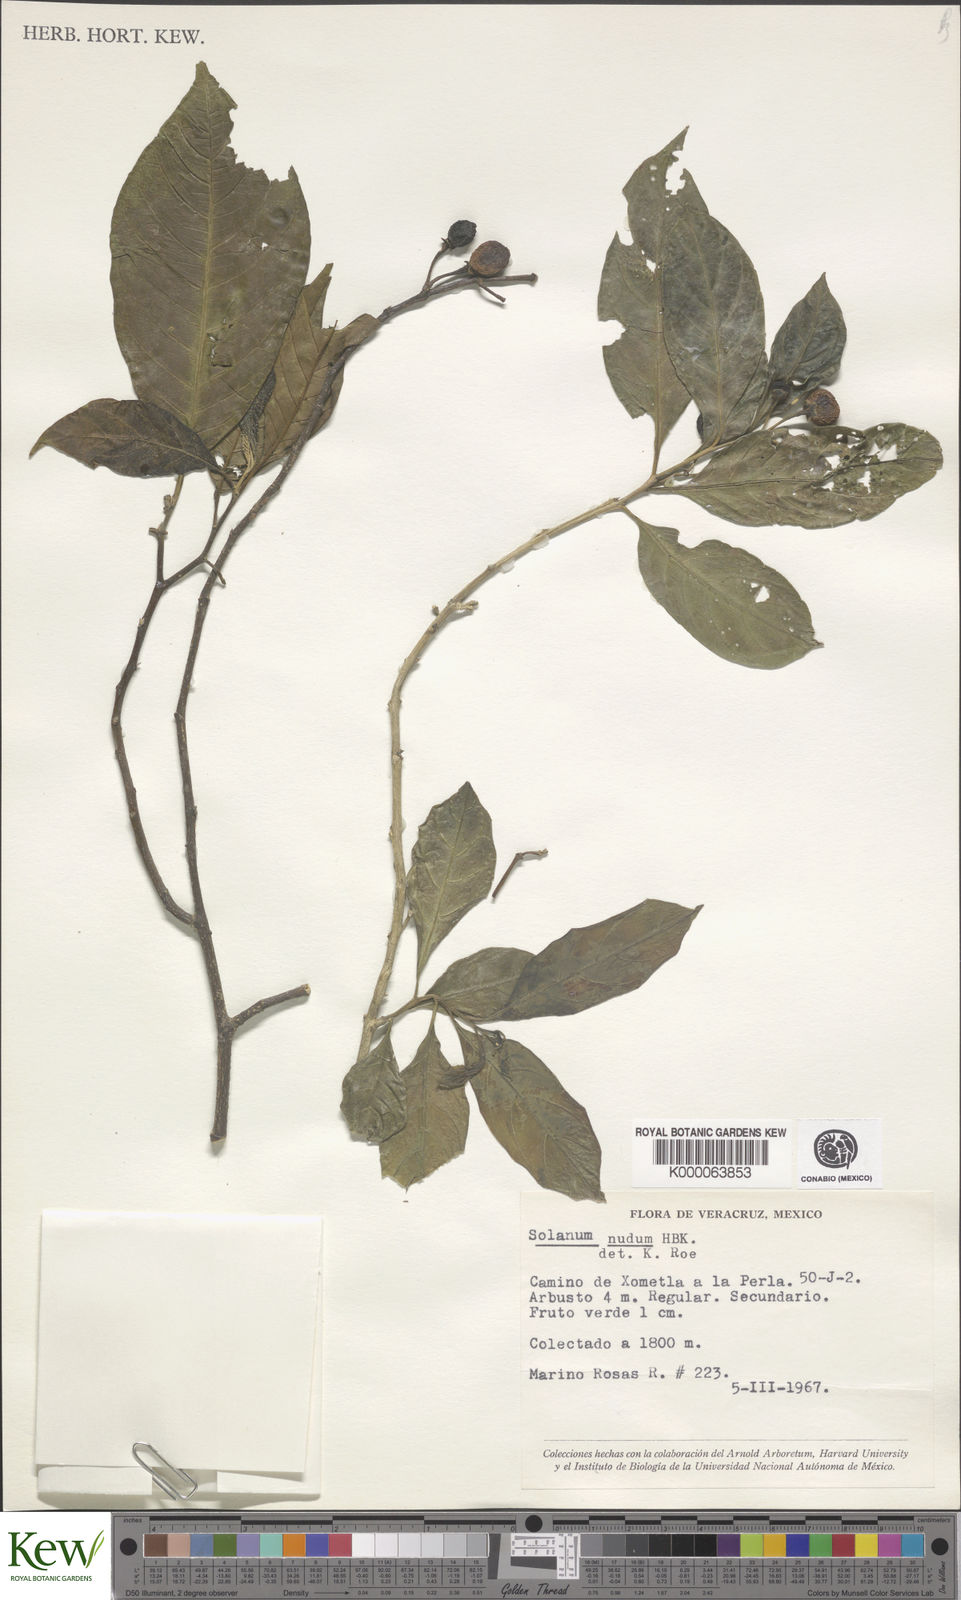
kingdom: Plantae
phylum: Tracheophyta
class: Magnoliopsida
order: Solanales
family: Solanaceae
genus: Solanum
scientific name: Solanum nudum
